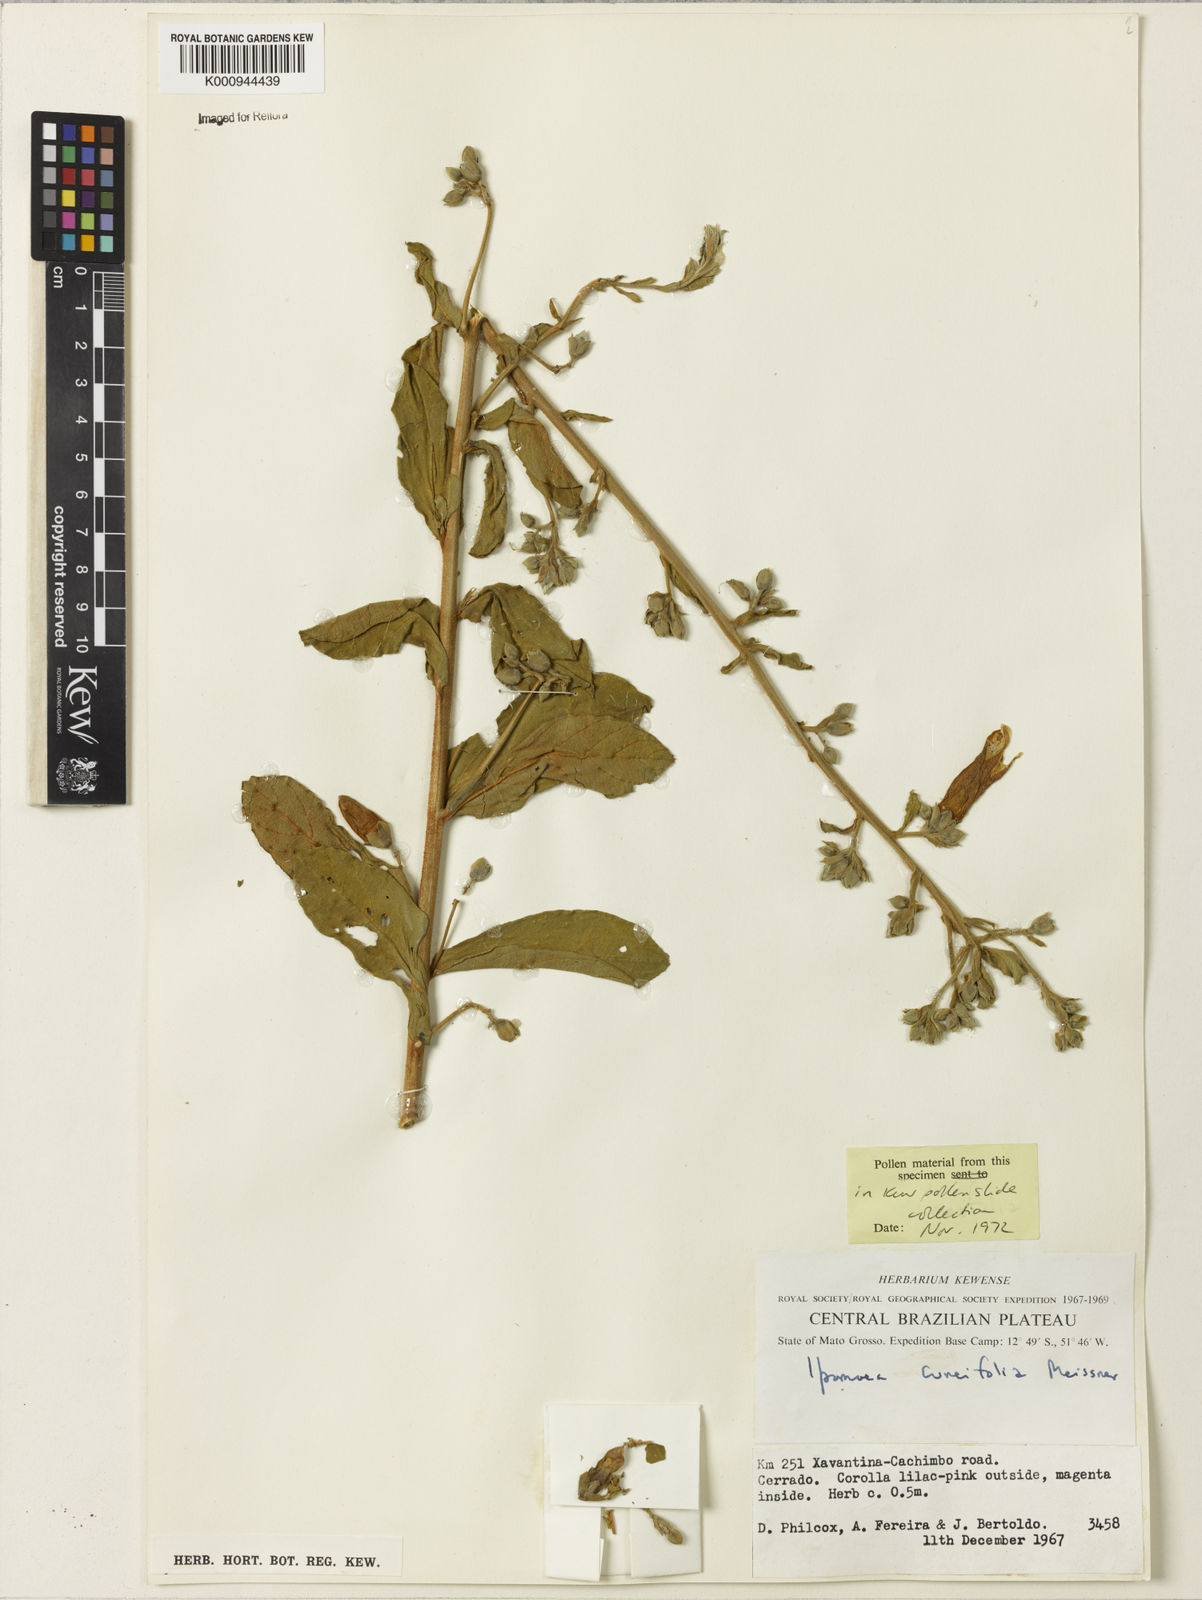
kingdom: Plantae
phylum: Tracheophyta
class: Magnoliopsida
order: Solanales
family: Convolvulaceae
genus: Ipomoea
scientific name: Ipomoea cuneifolia
